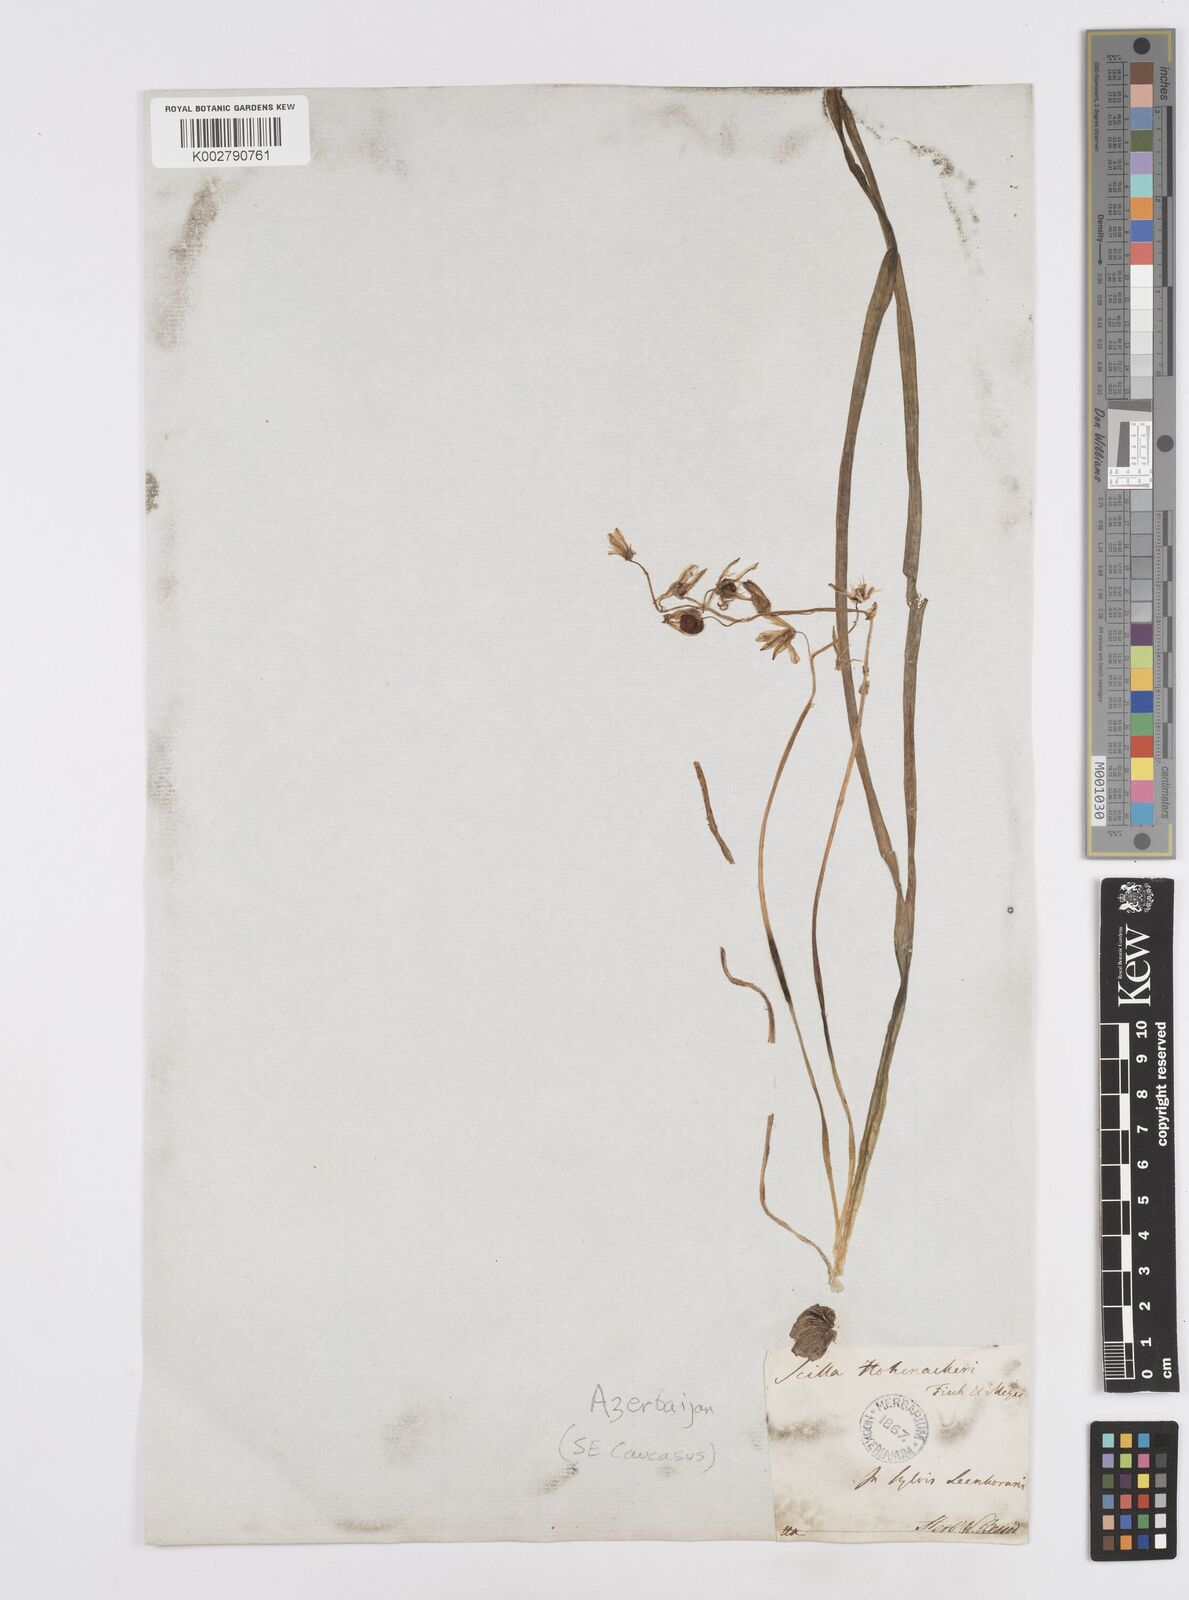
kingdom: Plantae
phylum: Tracheophyta
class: Liliopsida
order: Asparagales
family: Asparagaceae
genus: Fessia
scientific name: Fessia hohenackeri
